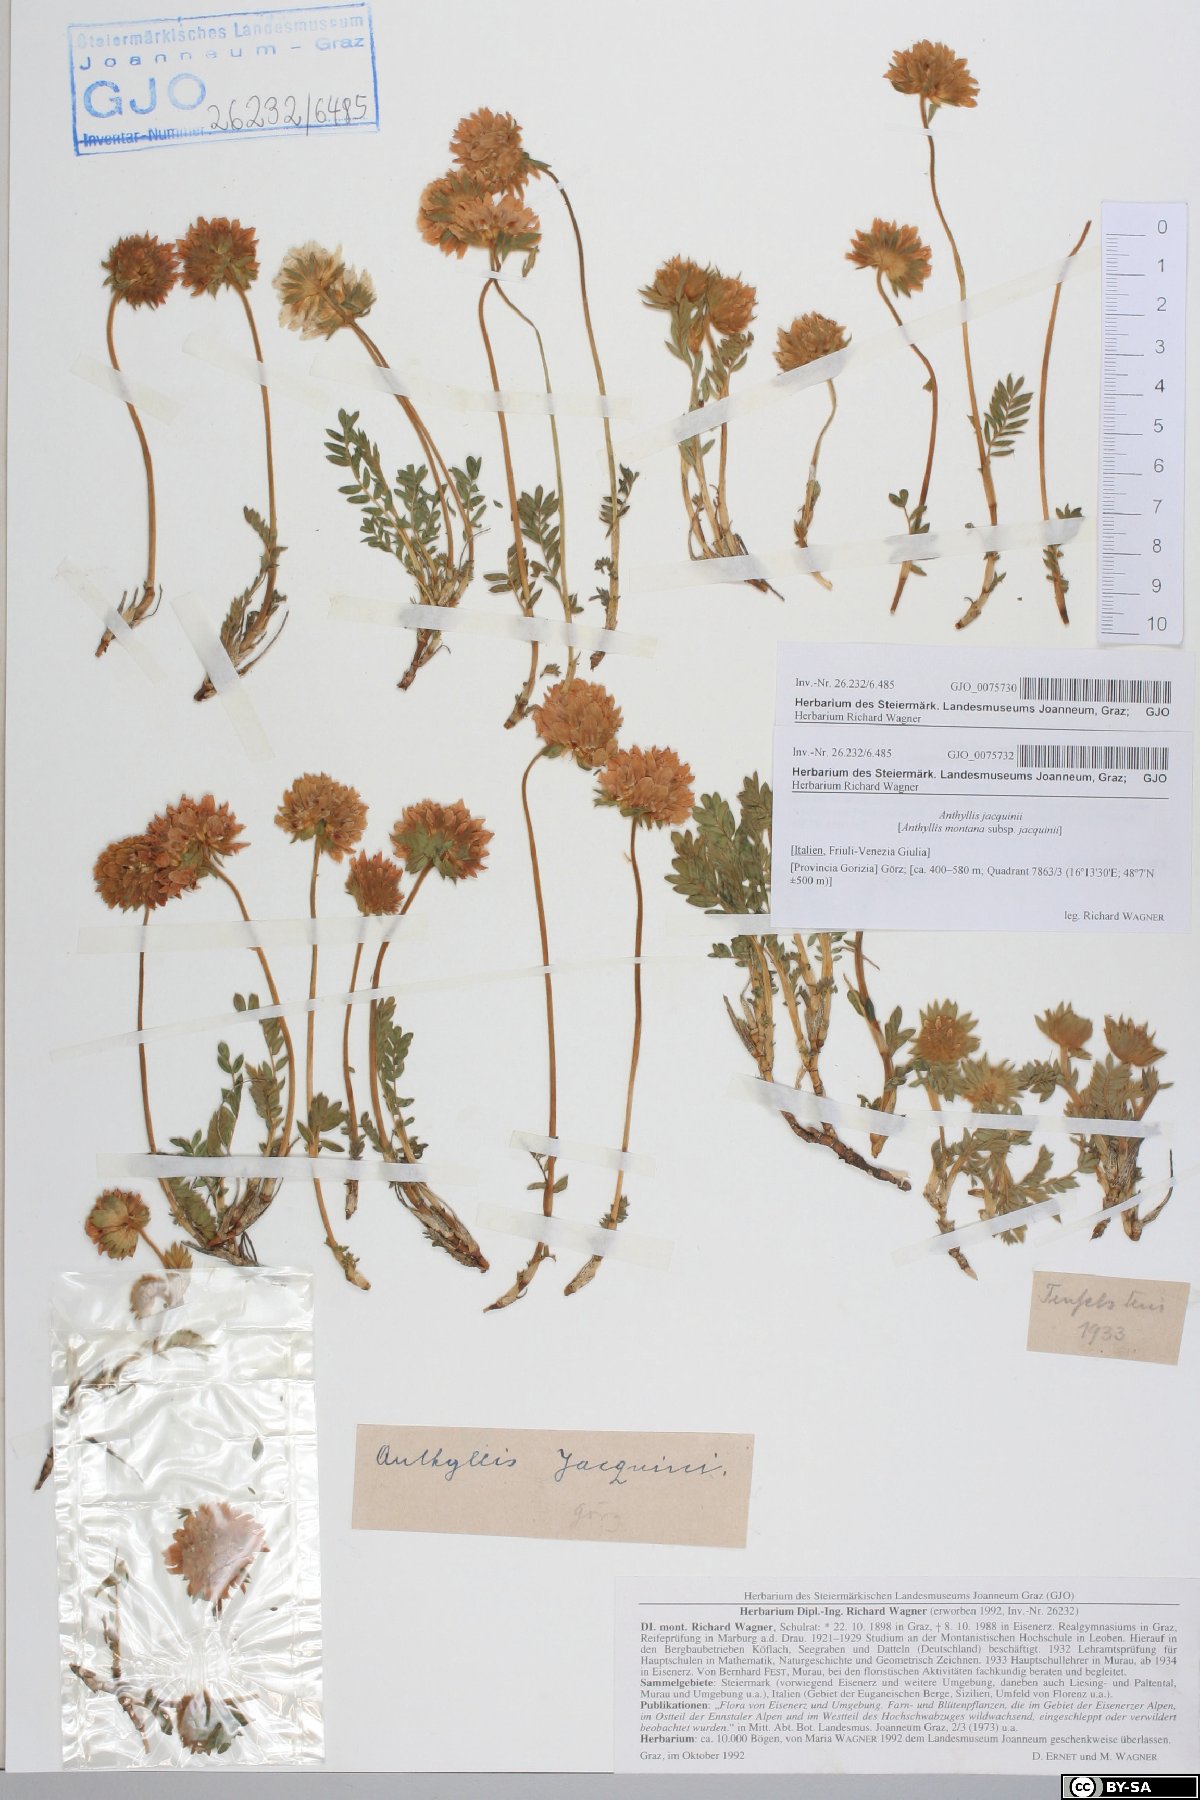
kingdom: Plantae
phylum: Tracheophyta
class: Magnoliopsida
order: Fabales
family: Fabaceae
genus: Anthyllis
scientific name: Anthyllis montana
